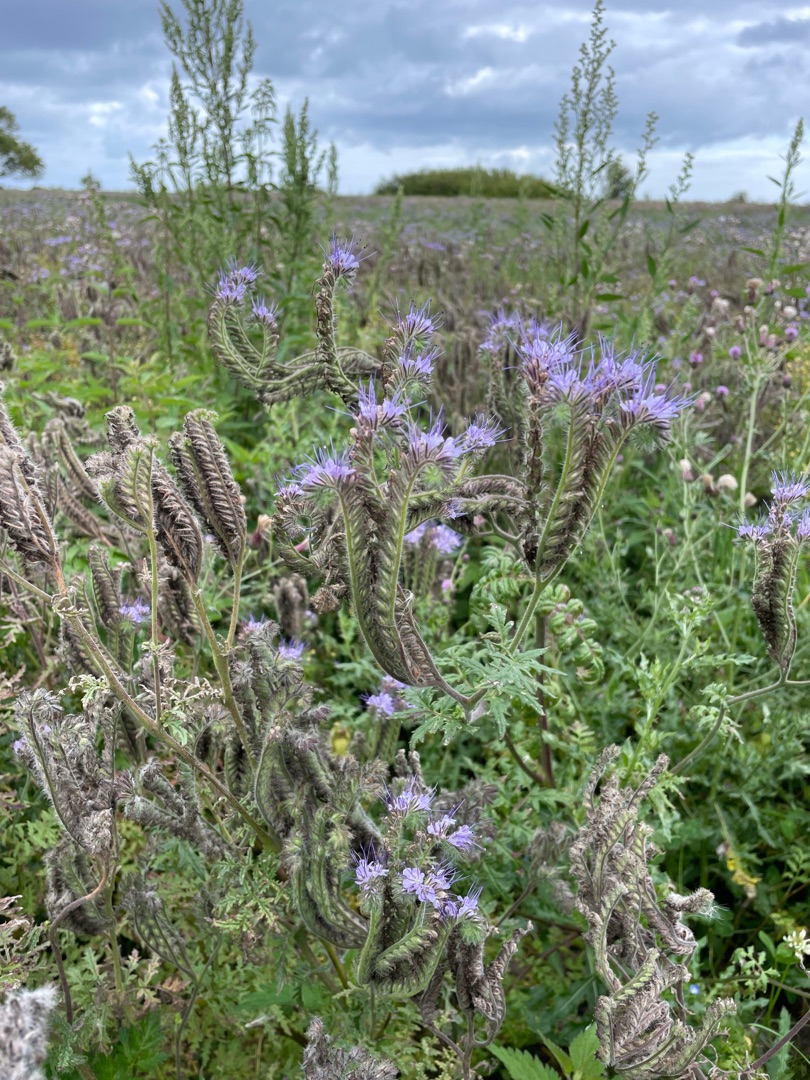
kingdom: Plantae
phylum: Tracheophyta
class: Magnoliopsida
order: Boraginales
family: Hydrophyllaceae
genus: Phacelia
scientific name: Phacelia tanacetifolia
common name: Honningurt
